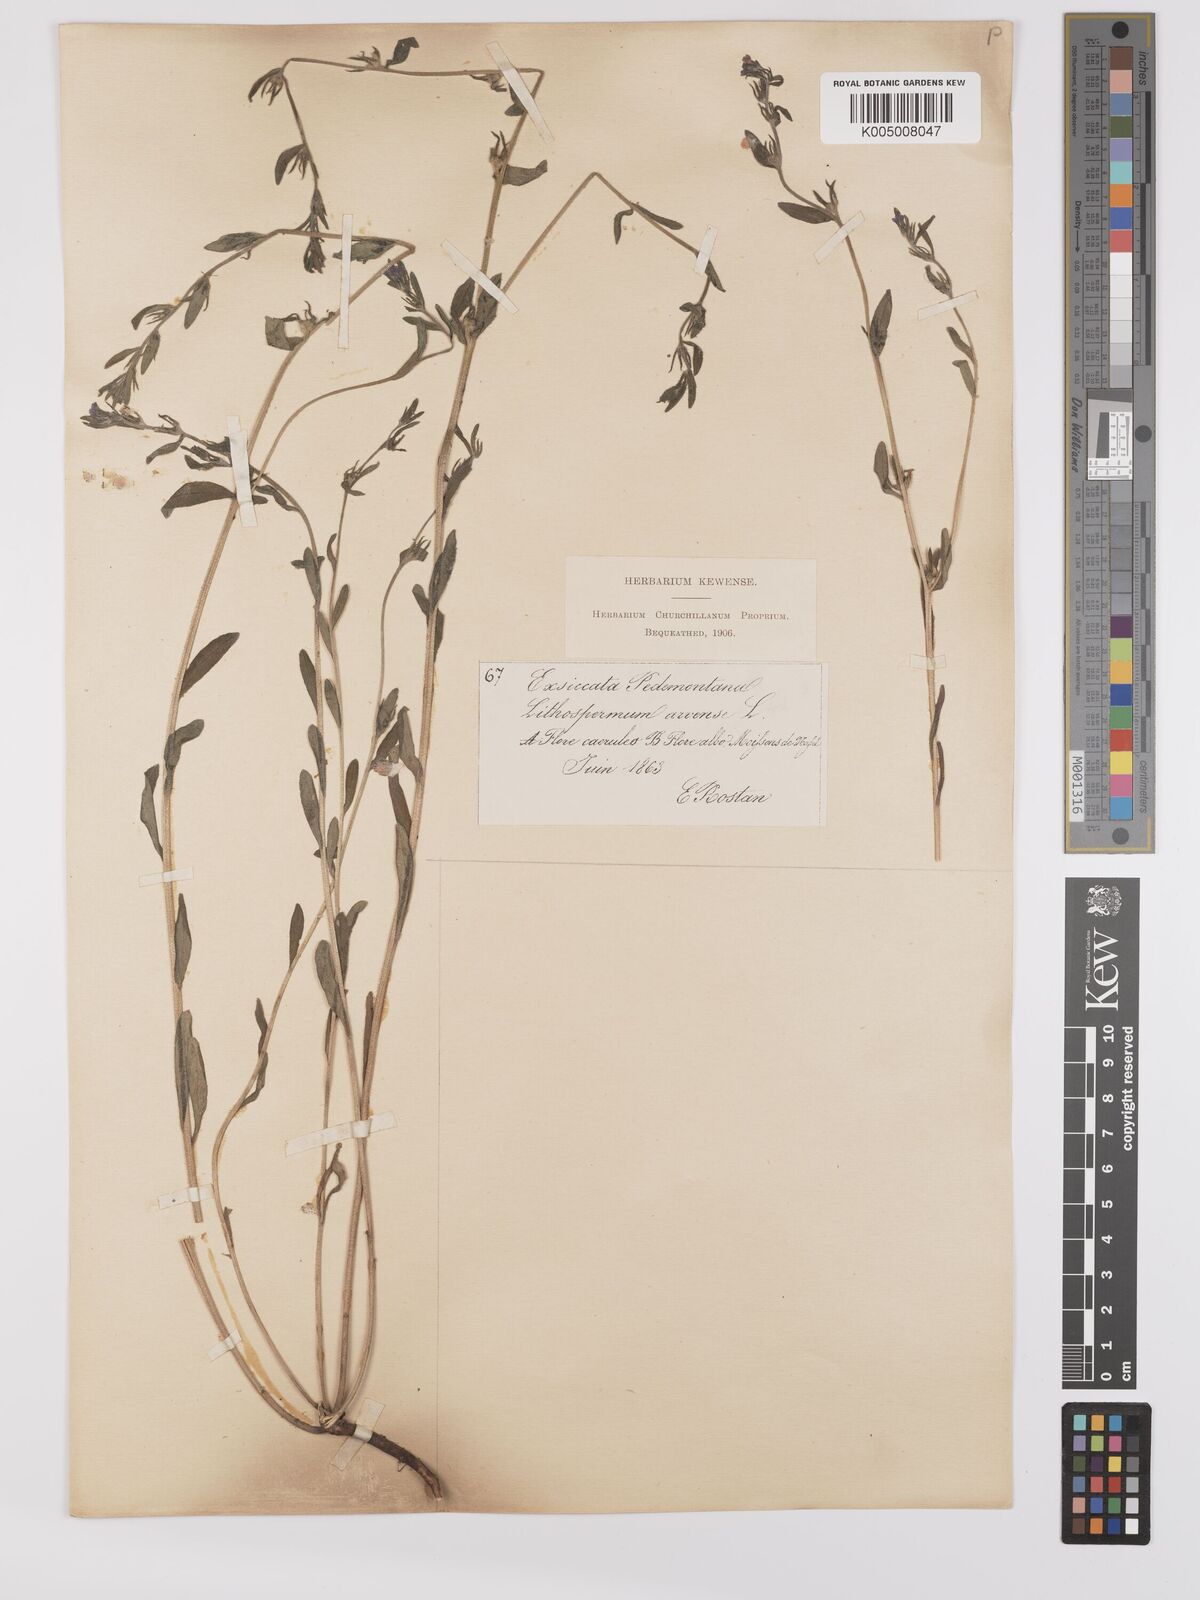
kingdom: Plantae
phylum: Tracheophyta
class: Magnoliopsida
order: Boraginales
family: Boraginaceae
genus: Buglossoides
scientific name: Buglossoides incrassata
